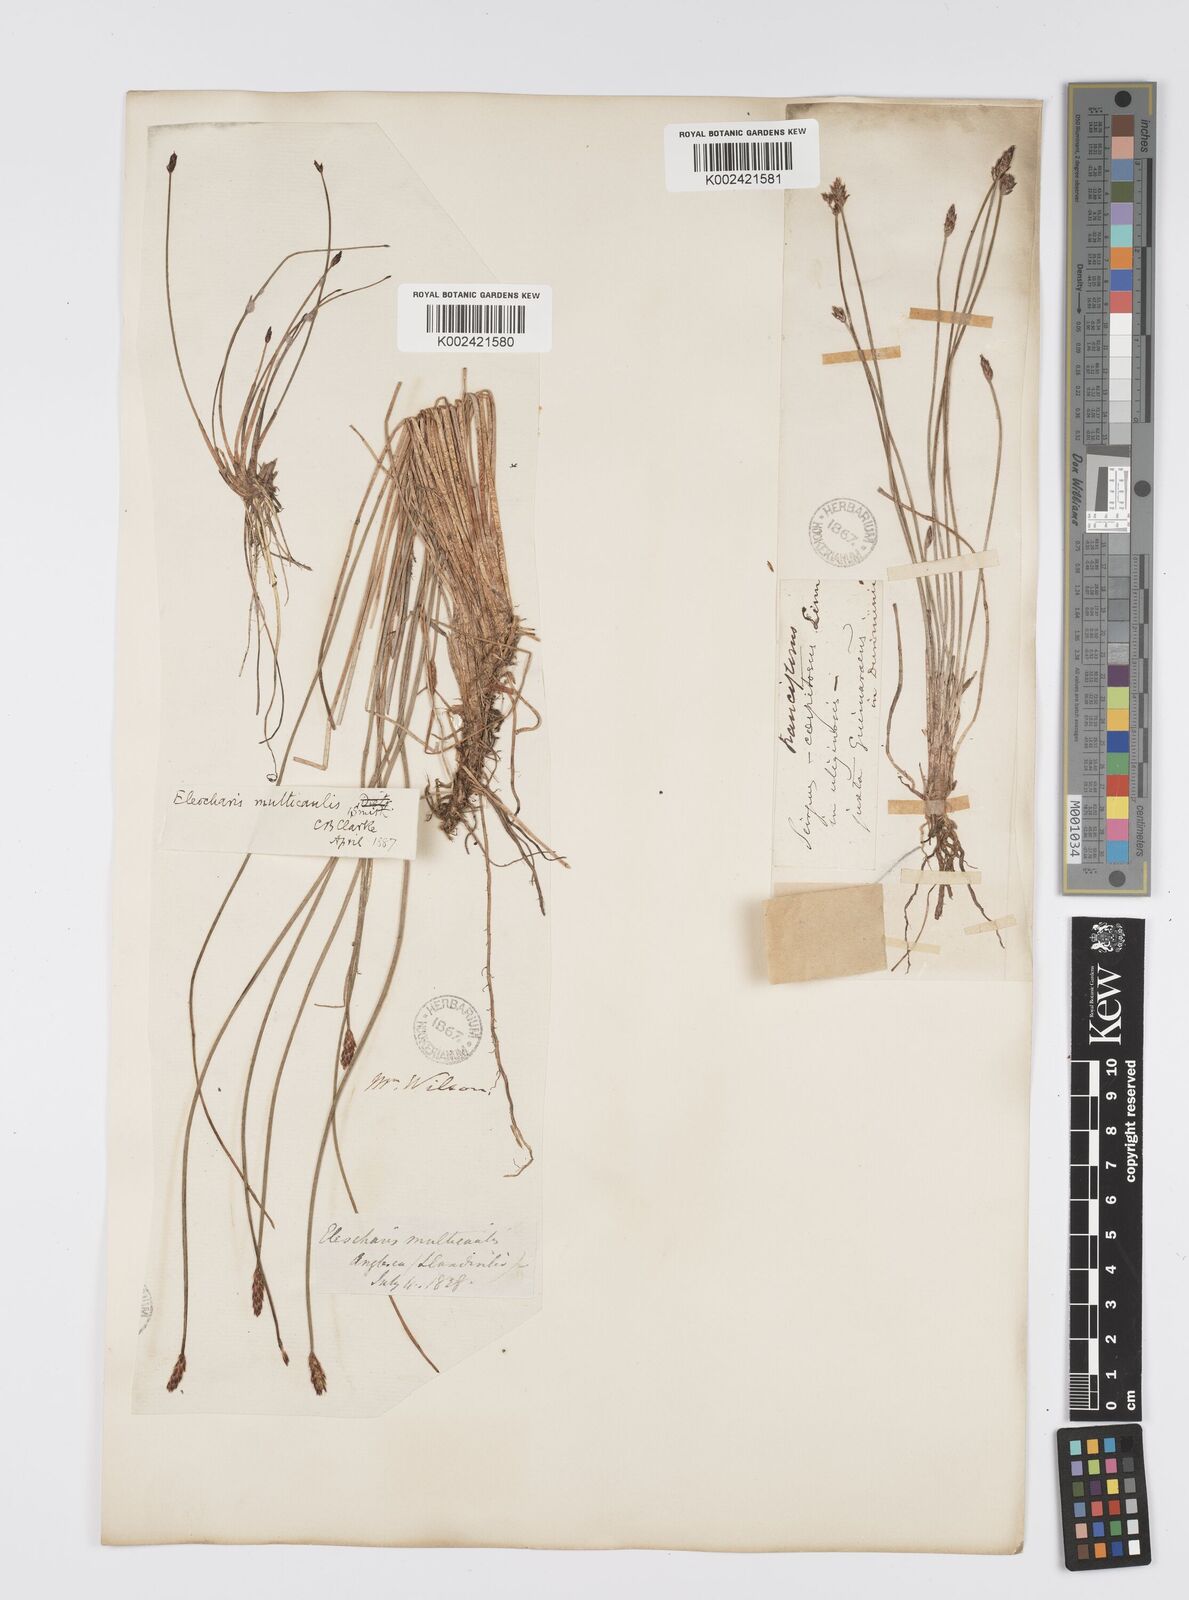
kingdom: Plantae
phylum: Tracheophyta
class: Liliopsida
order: Poales
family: Cyperaceae
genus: Eleocharis
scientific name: Eleocharis multicaulis
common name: Many-stalked spike-rush
